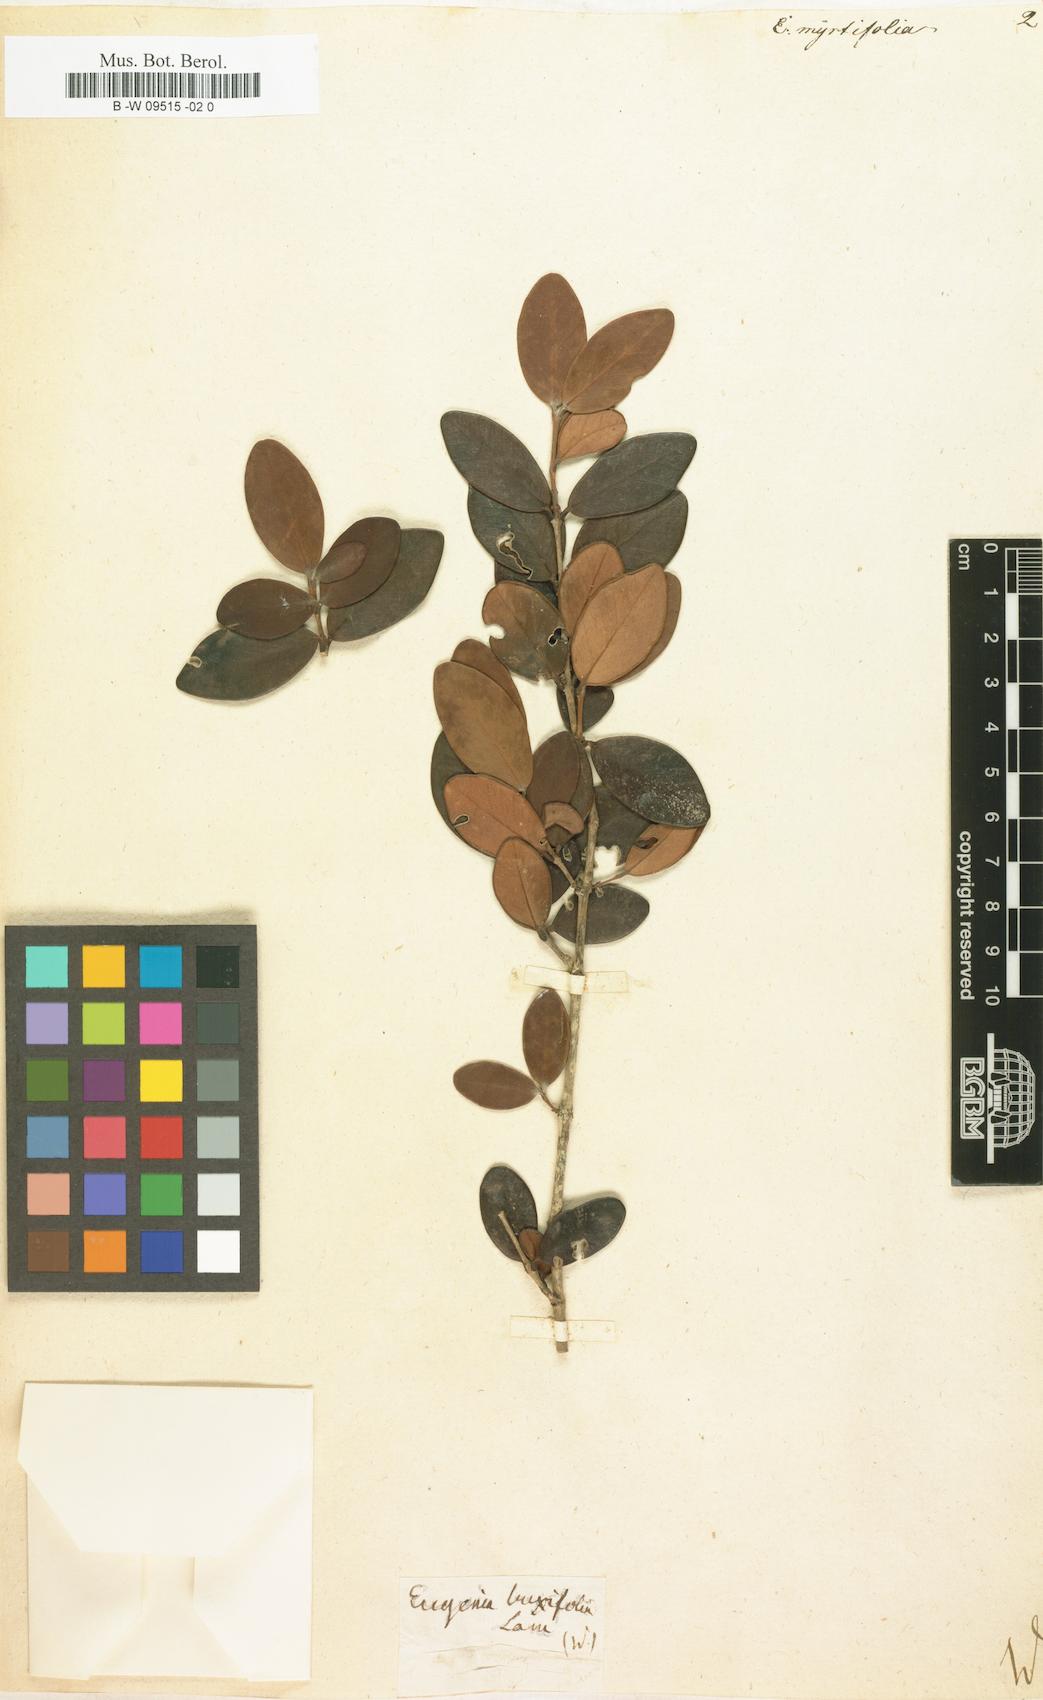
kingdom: Plantae
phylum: Tracheophyta
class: Magnoliopsida
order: Myrtales
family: Myrtaceae
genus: Eugenia
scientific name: Eugenia uniflora
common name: Surinam cherry
